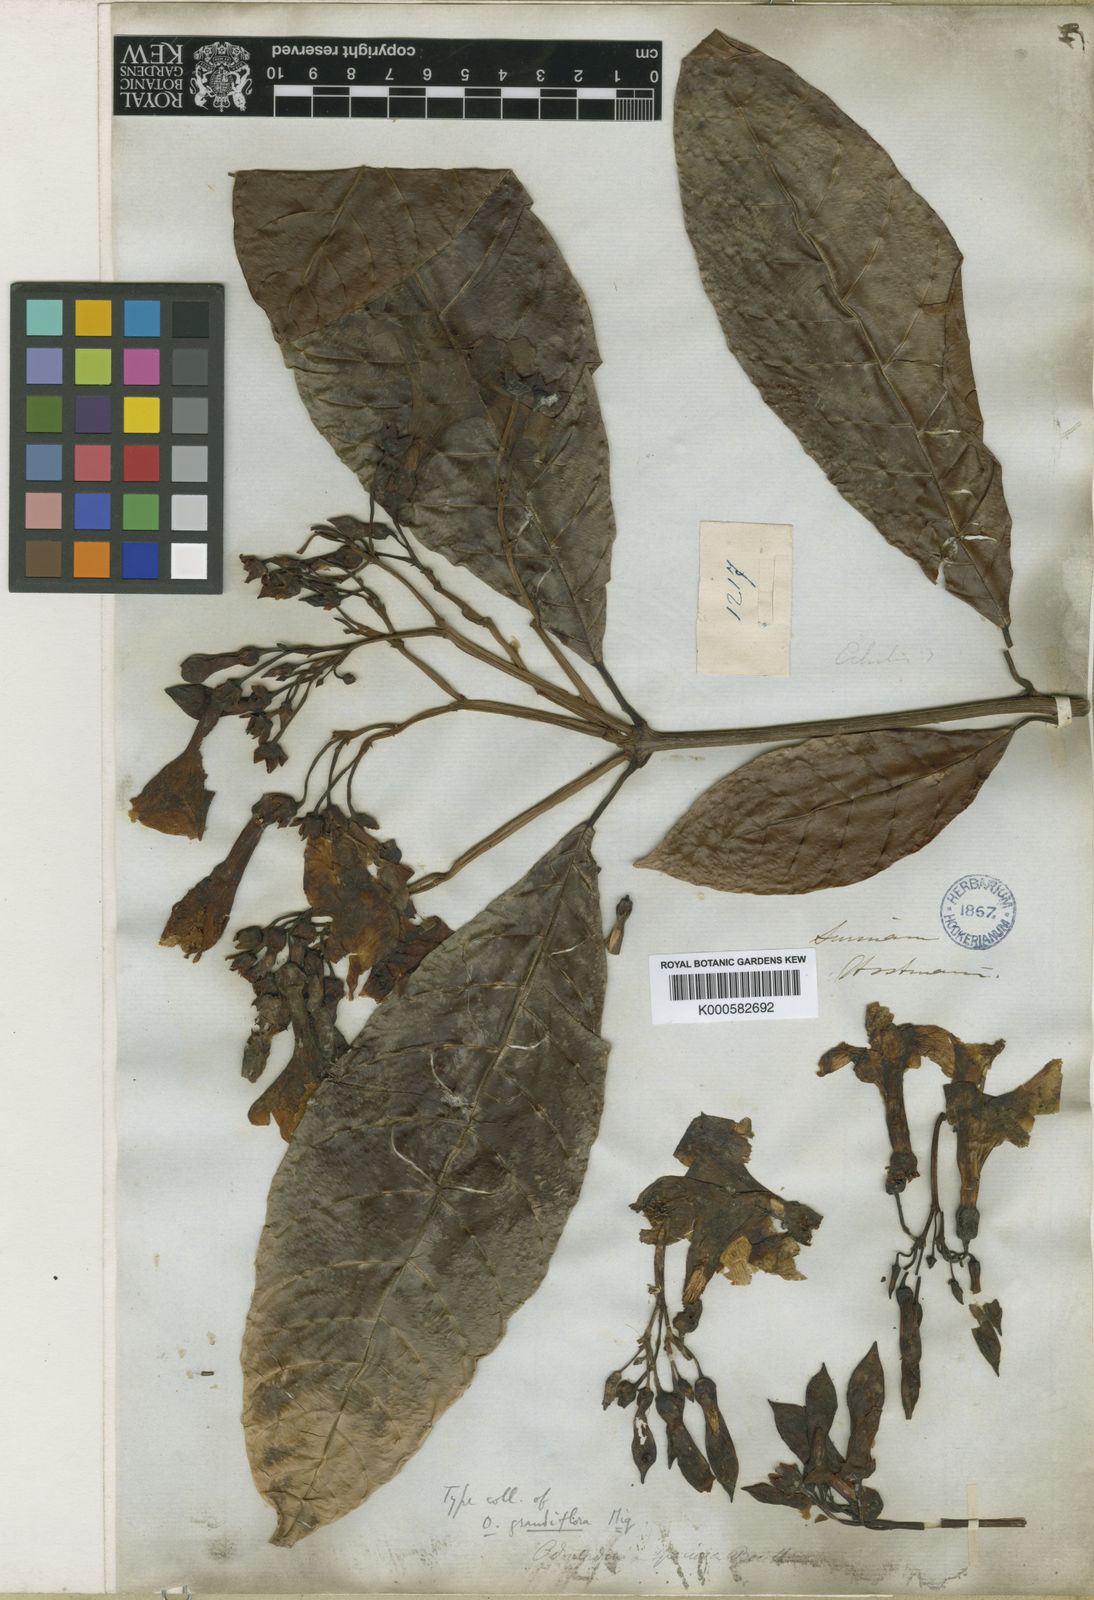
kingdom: Plantae
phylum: Tracheophyta
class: Magnoliopsida
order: Gentianales
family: Apocynaceae
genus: Odontadenia
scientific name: Odontadenia semidigyna
